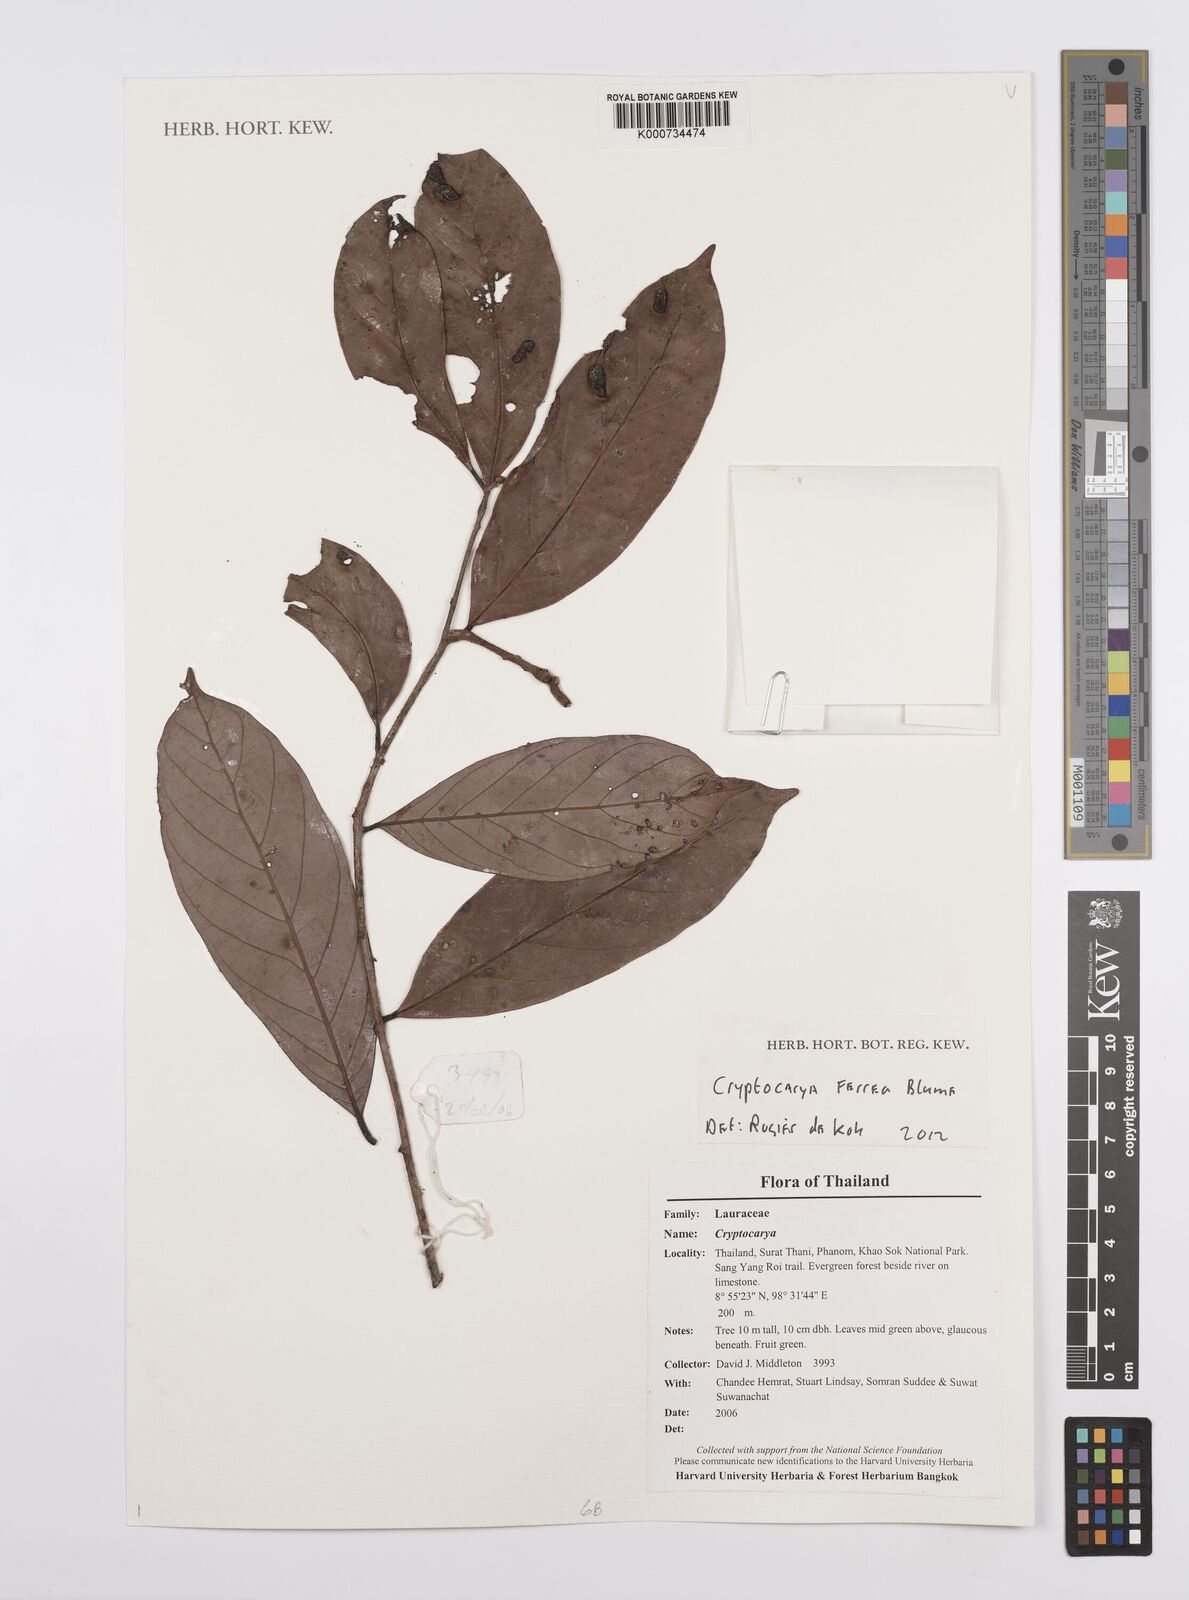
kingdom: Plantae
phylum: Tracheophyta
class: Magnoliopsida
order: Laurales
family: Lauraceae
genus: Cryptocarya
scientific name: Cryptocarya ferrea
